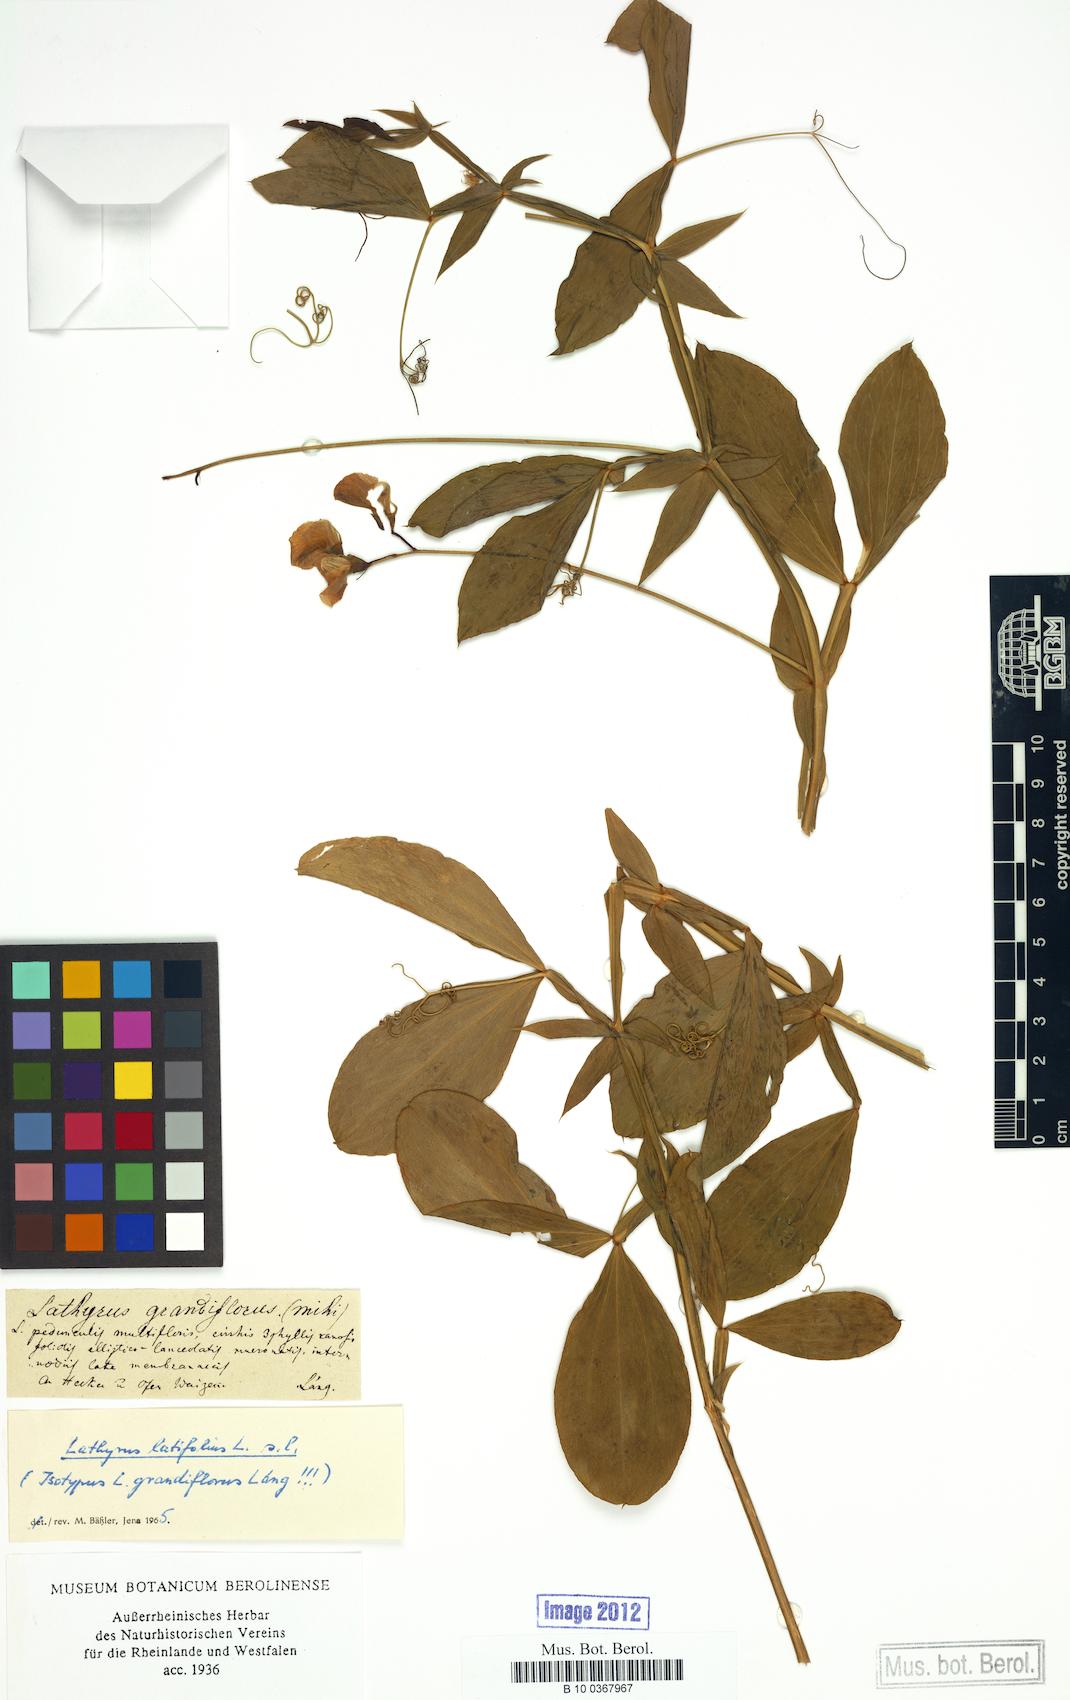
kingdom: Plantae
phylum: Tracheophyta
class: Magnoliopsida
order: Fabales
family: Fabaceae
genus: Lathyrus
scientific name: Lathyrus latifolius
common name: Perennial pea
